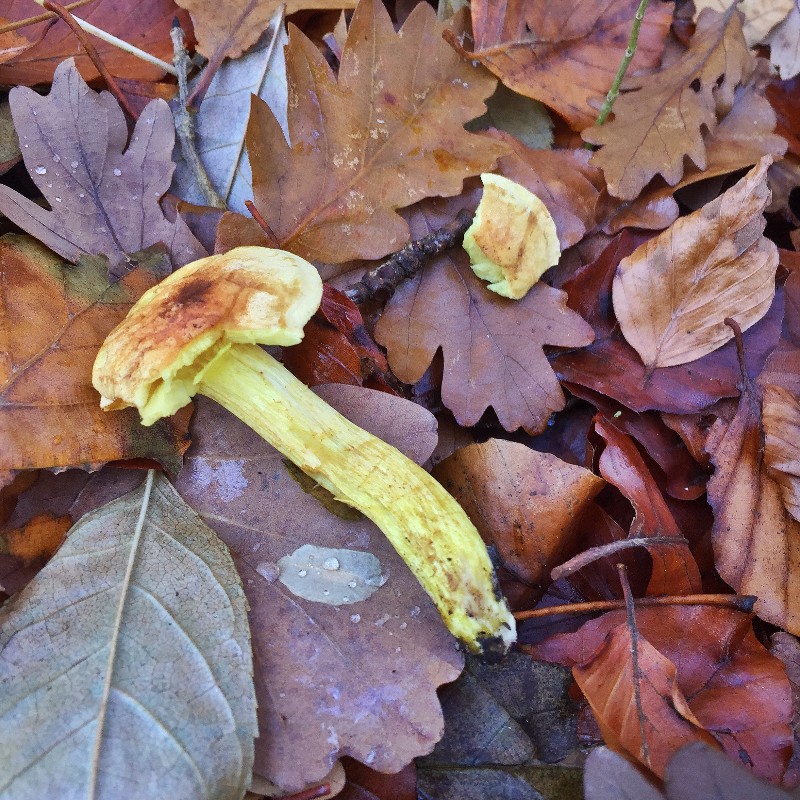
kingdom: Fungi
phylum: Basidiomycota
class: Agaricomycetes
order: Agaricales
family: Tricholomataceae
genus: Tricholoma
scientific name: Tricholoma sulphureum
